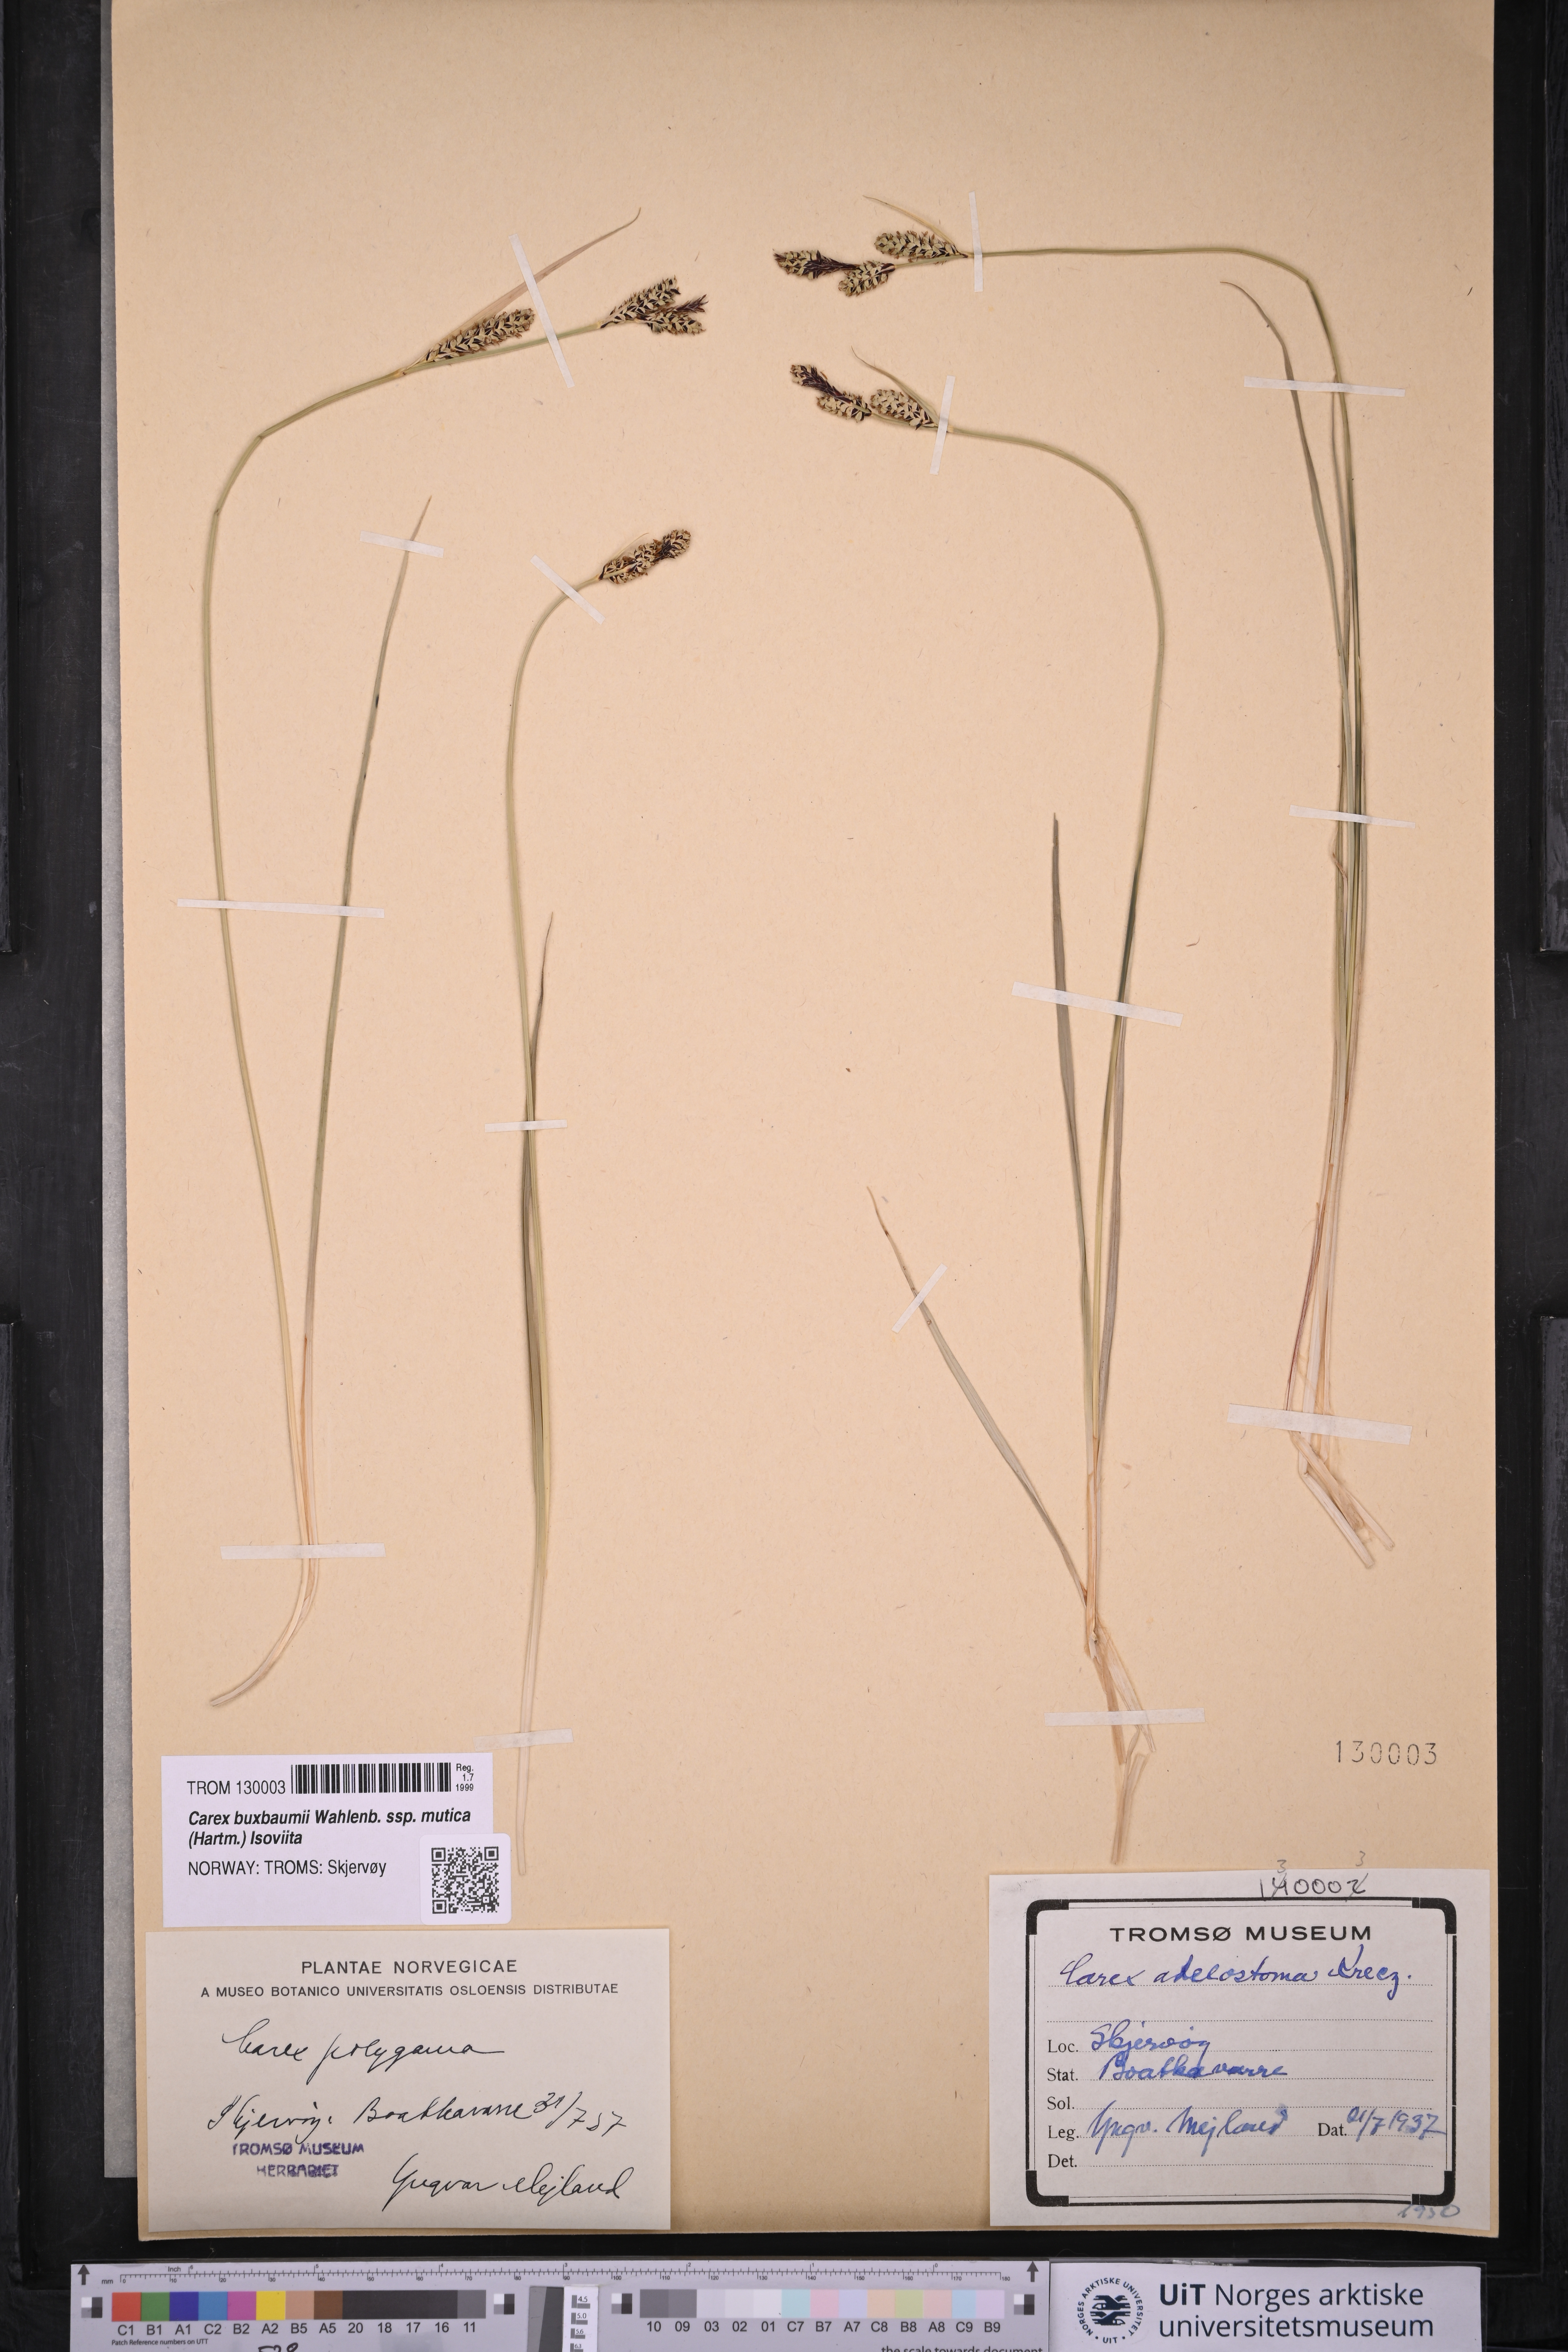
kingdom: Plantae
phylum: Tracheophyta
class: Liliopsida
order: Poales
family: Cyperaceae
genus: Carex
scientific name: Carex adelostoma
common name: Circumpolar sedge
